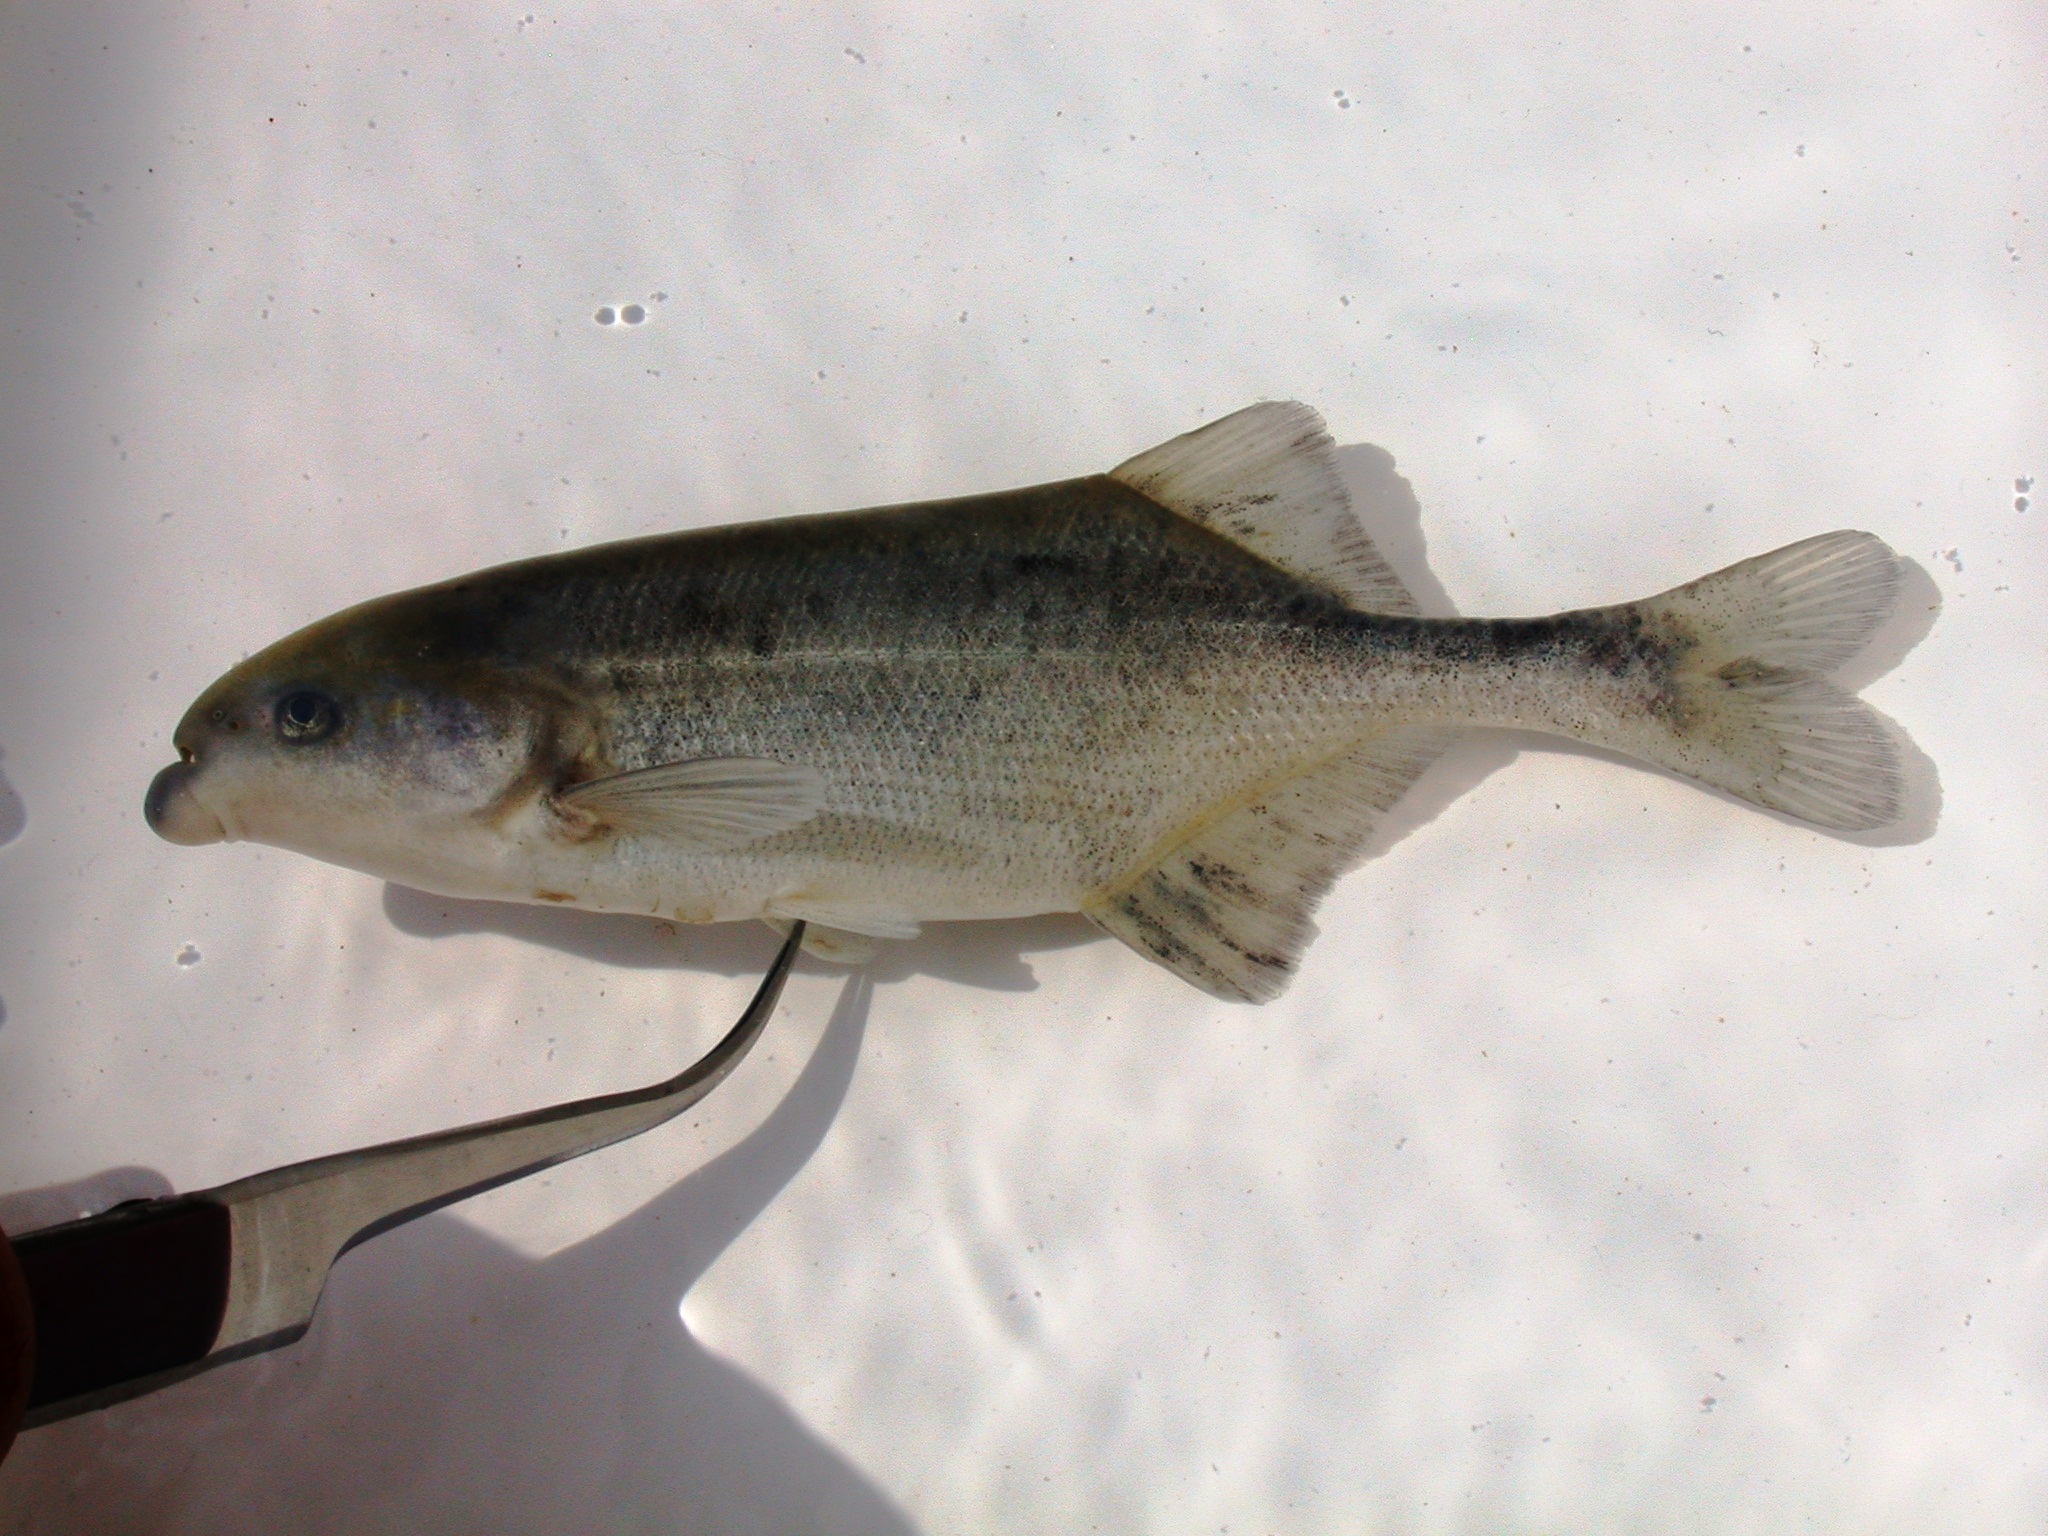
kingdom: Animalia
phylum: Chordata
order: Osteoglossiformes
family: Mormyridae
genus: Marcusenius
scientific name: Marcusenius macrolepidotus
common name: Bulldog
